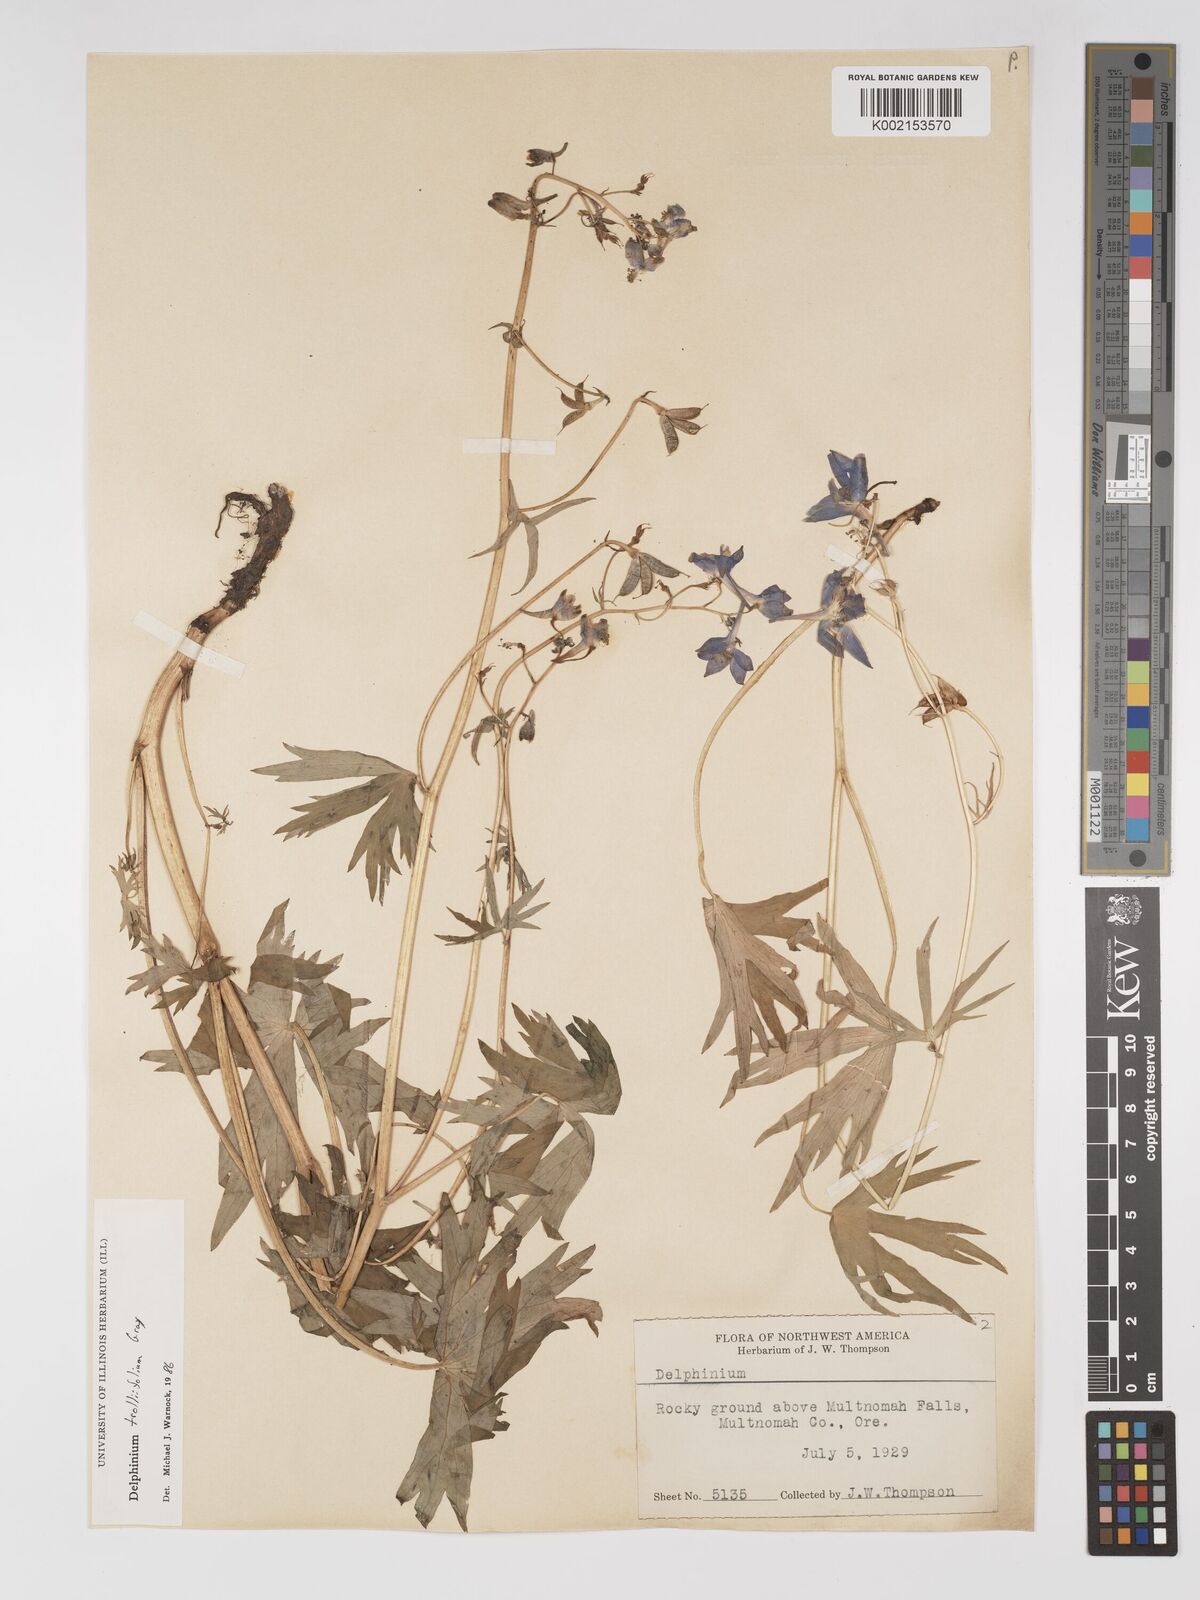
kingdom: Plantae
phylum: Tracheophyta
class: Magnoliopsida
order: Ranunculales
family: Ranunculaceae
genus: Delphinium
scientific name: Delphinium trolliifolium
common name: Cow-poison
